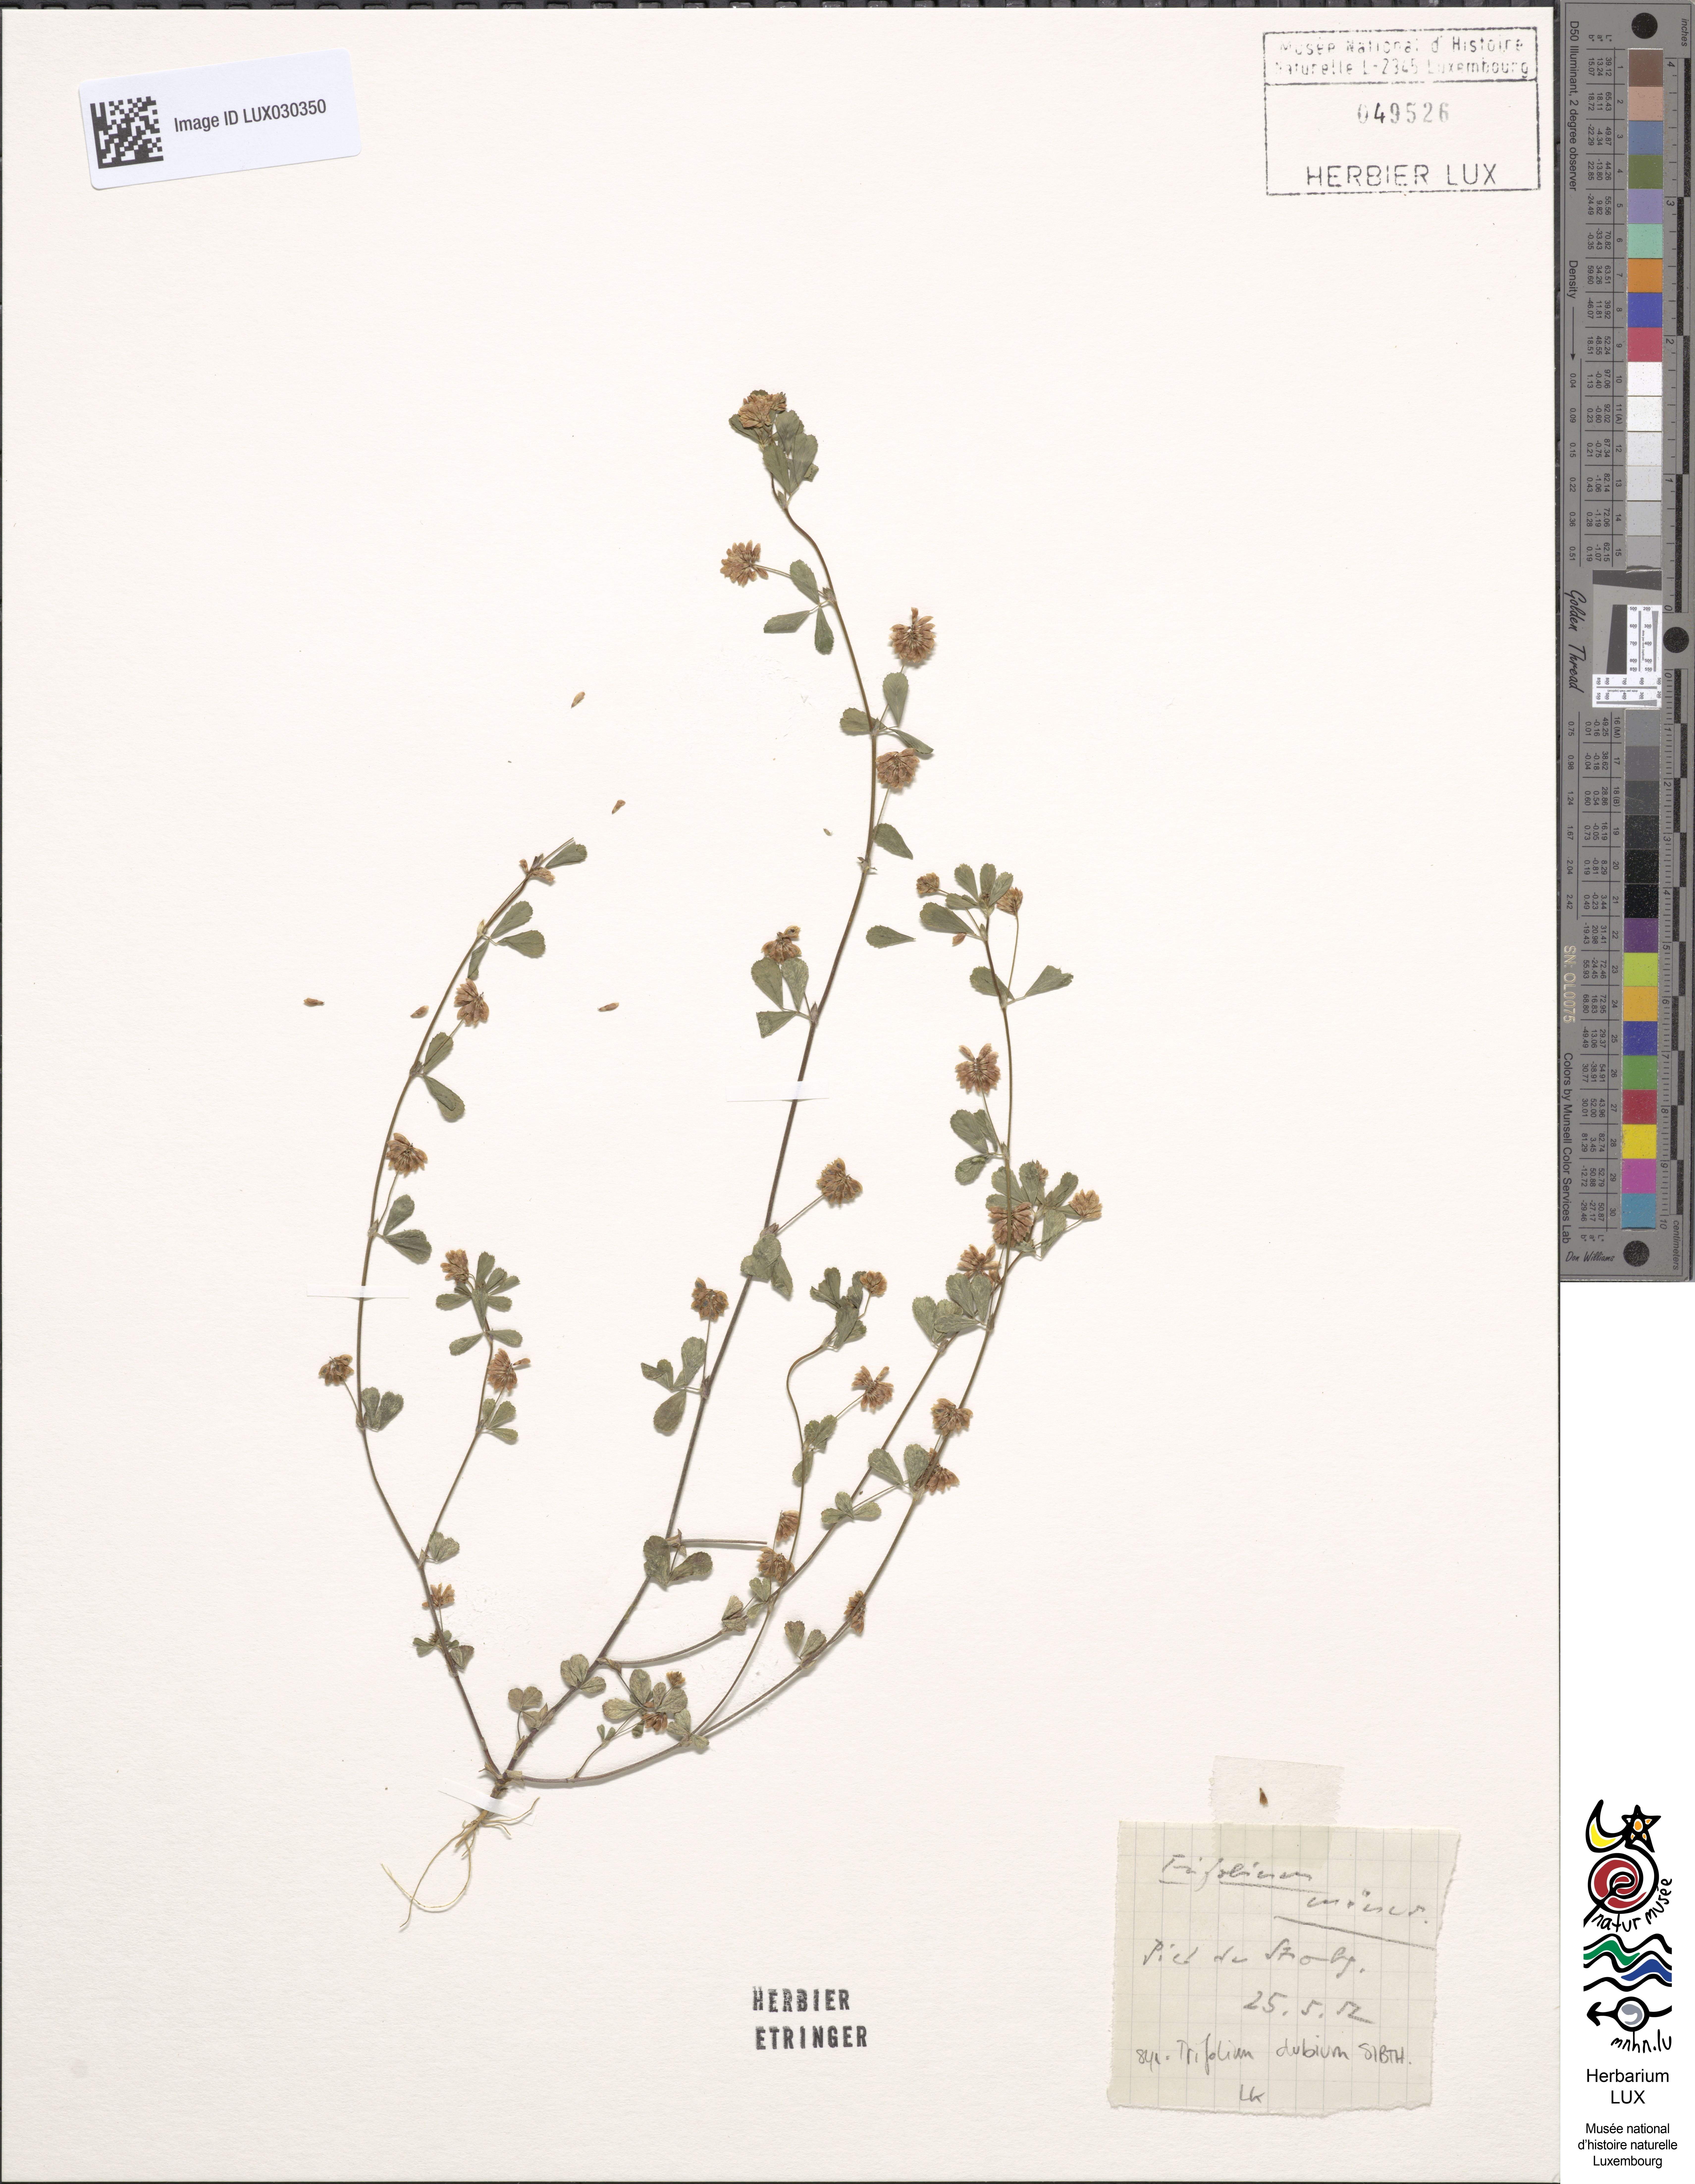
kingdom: Plantae
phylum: Tracheophyta
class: Magnoliopsida
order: Fabales
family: Fabaceae
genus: Trifolium
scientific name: Trifolium dubium
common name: Suckling clover
